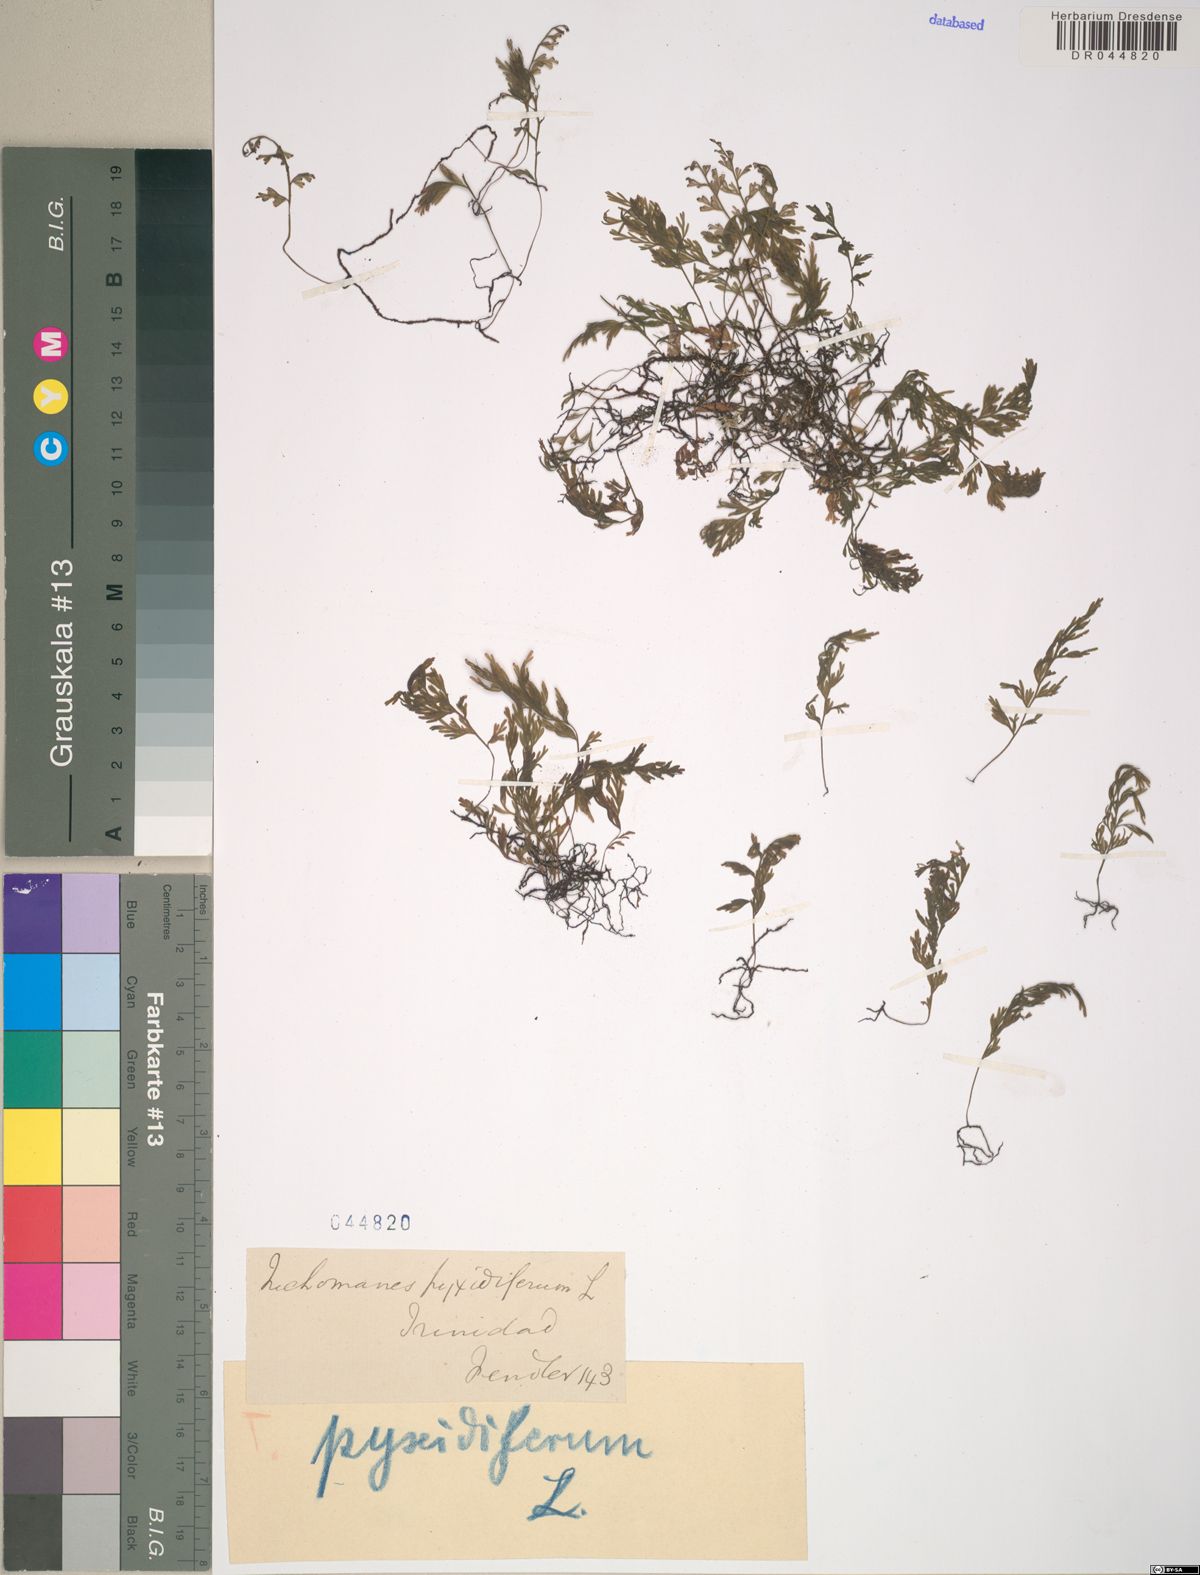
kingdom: Plantae
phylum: Tracheophyta
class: Polypodiopsida
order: Hymenophyllales
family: Hymenophyllaceae
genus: Polyphlebium
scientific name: Polyphlebium pyxidiferum
